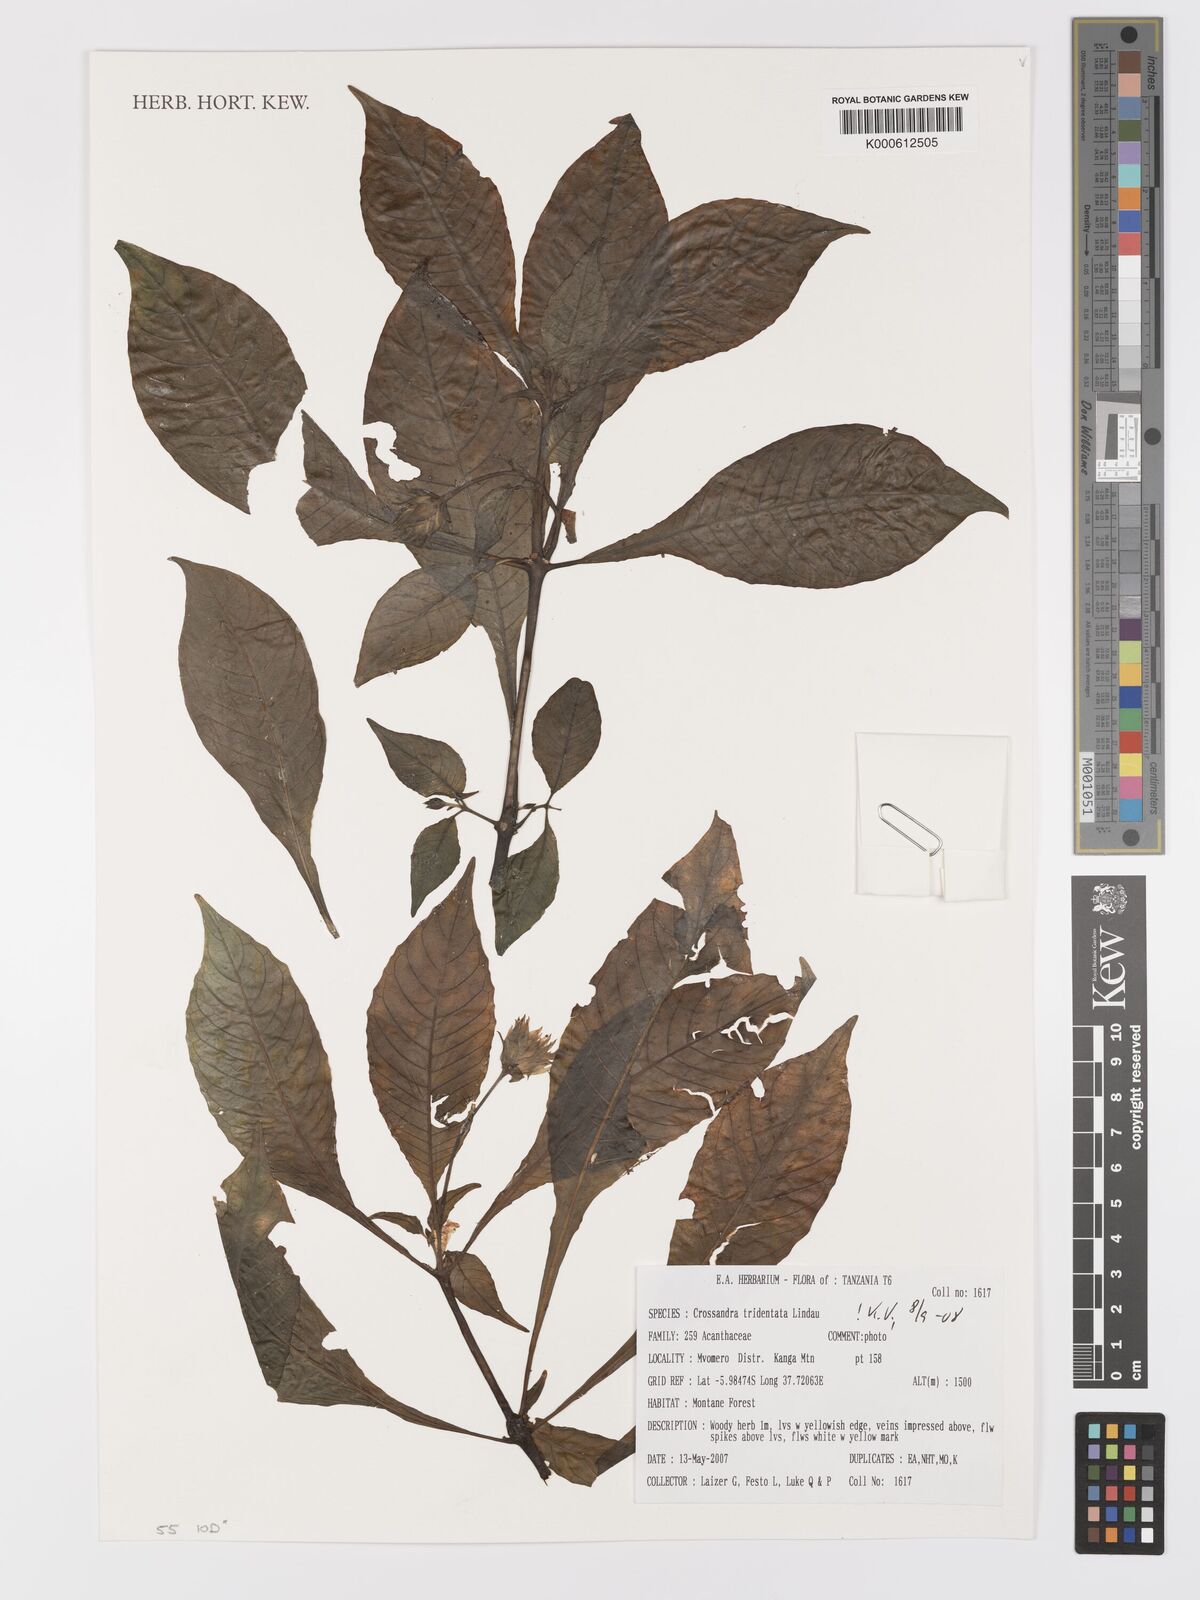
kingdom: Plantae
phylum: Tracheophyta
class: Magnoliopsida
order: Lamiales
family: Acanthaceae
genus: Crossandra
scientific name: Crossandra tridentata
